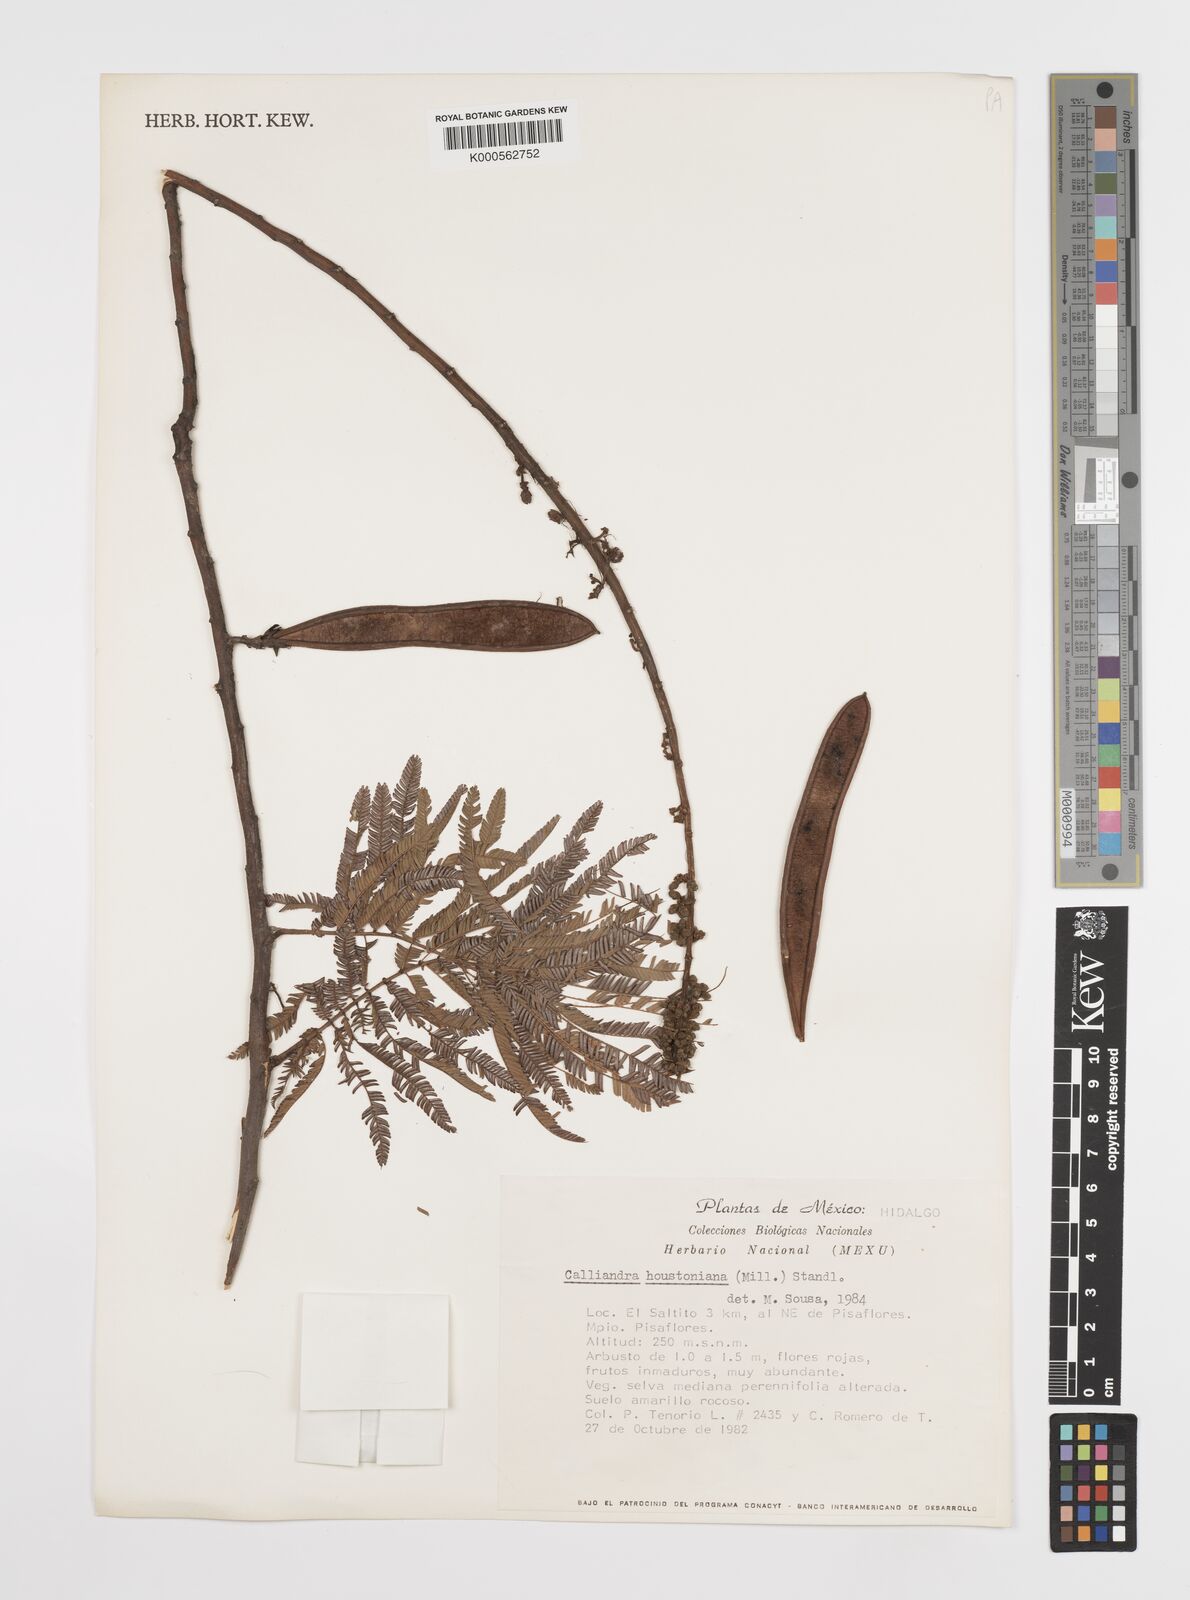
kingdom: Plantae
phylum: Tracheophyta
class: Magnoliopsida
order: Fabales
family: Fabaceae
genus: Calliandra
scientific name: Calliandra houstoniana
